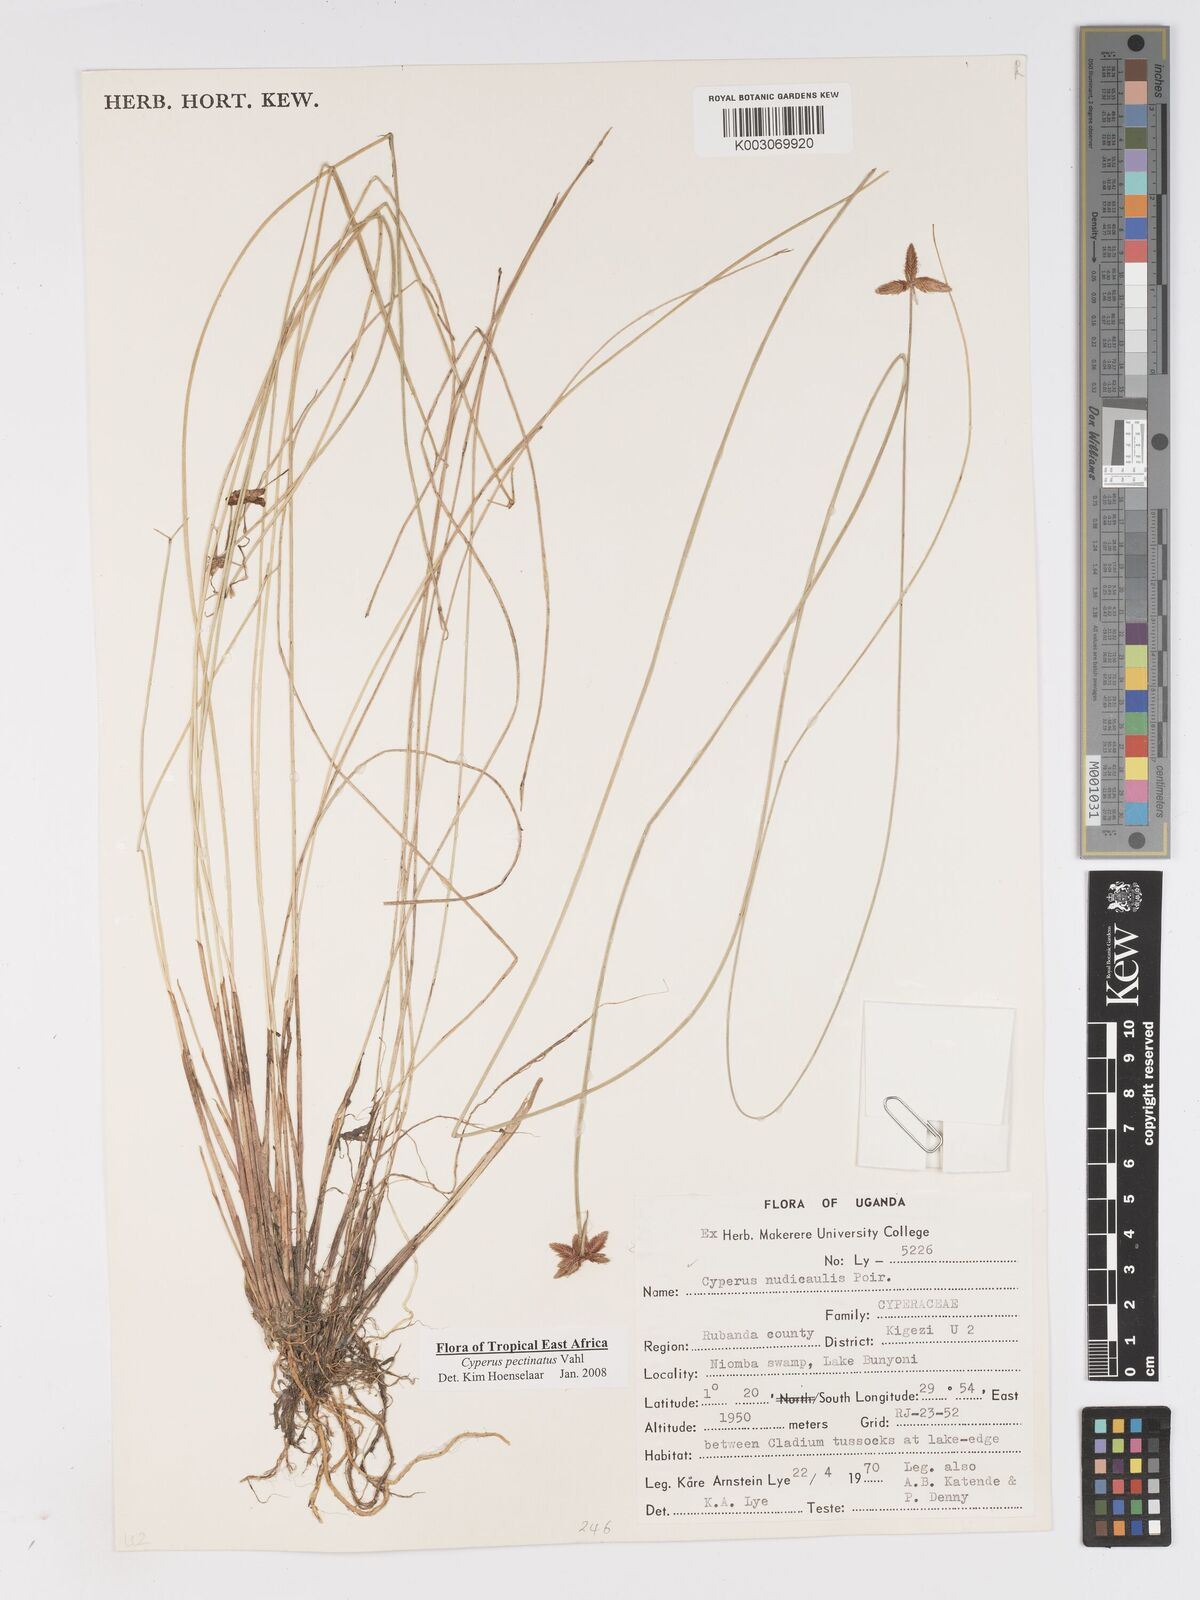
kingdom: Plantae
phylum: Tracheophyta
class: Liliopsida
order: Poales
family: Cyperaceae
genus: Cyperus
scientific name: Cyperus pectinatus
